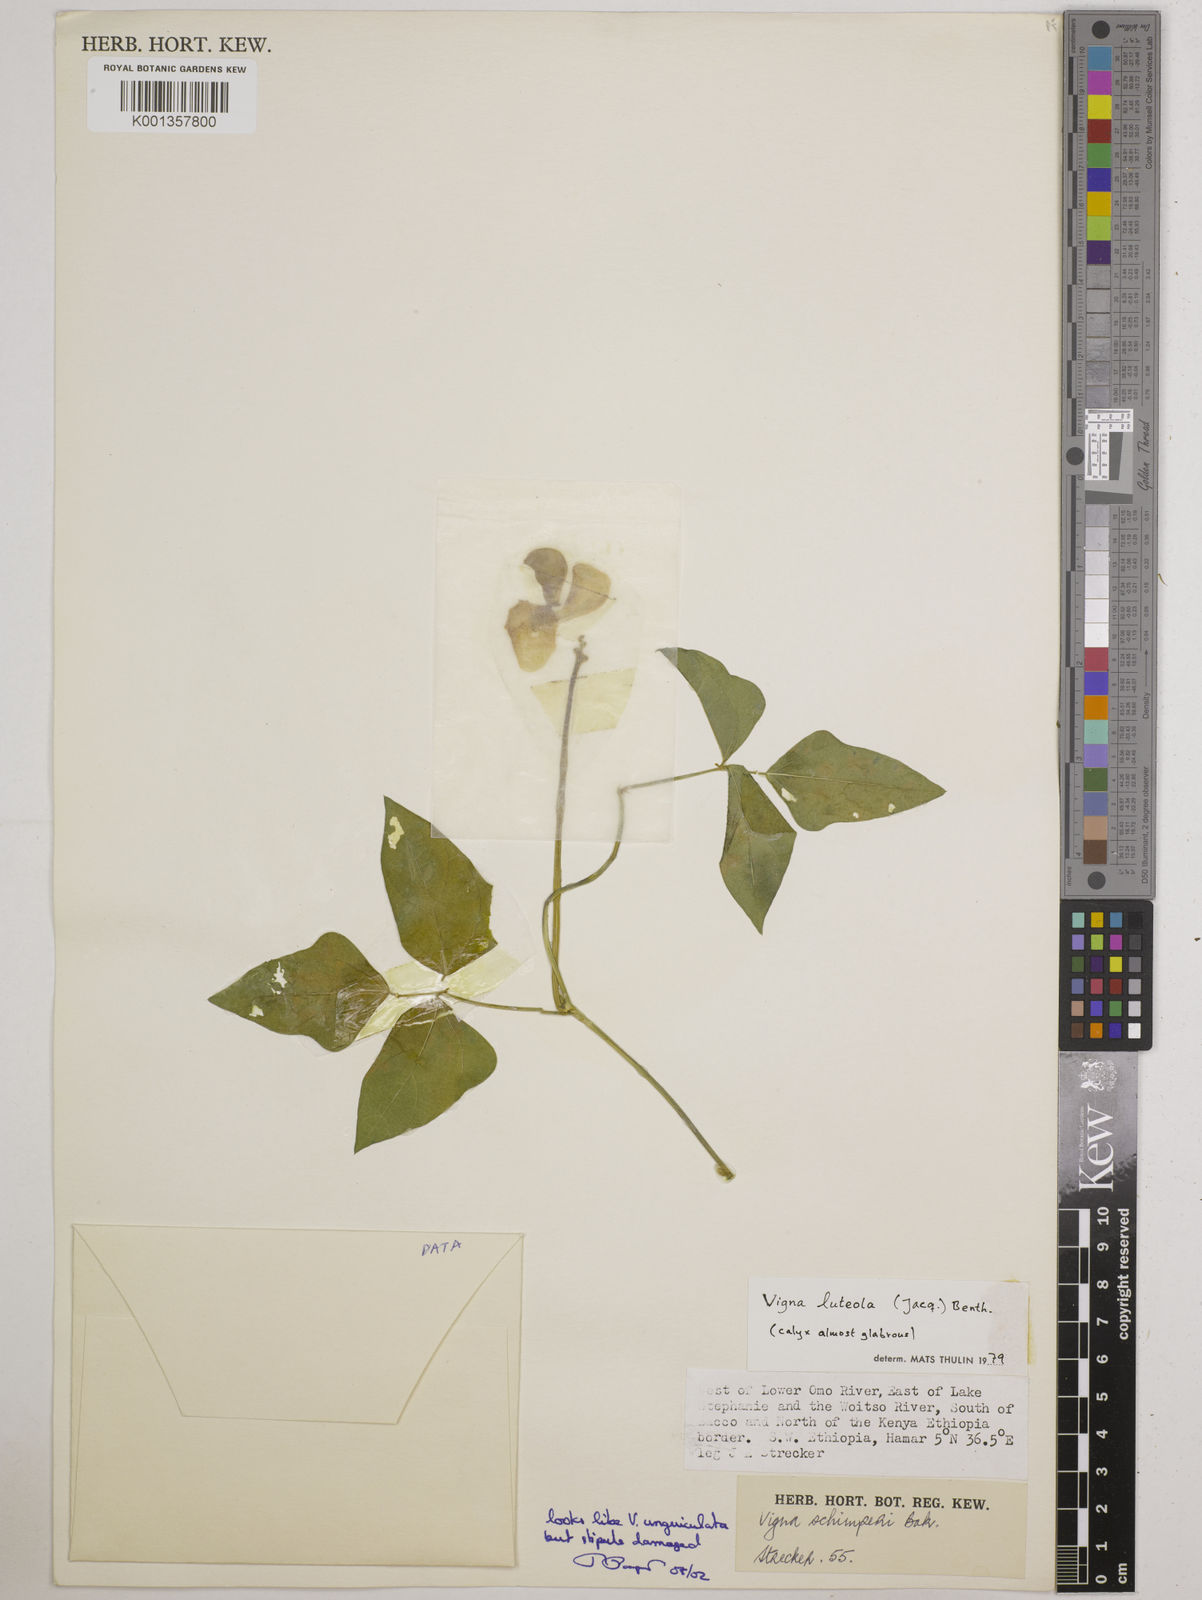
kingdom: Plantae
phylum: Tracheophyta
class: Magnoliopsida
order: Fabales
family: Fabaceae
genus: Vigna
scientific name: Vigna luteola
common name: Hairypod cowpea
